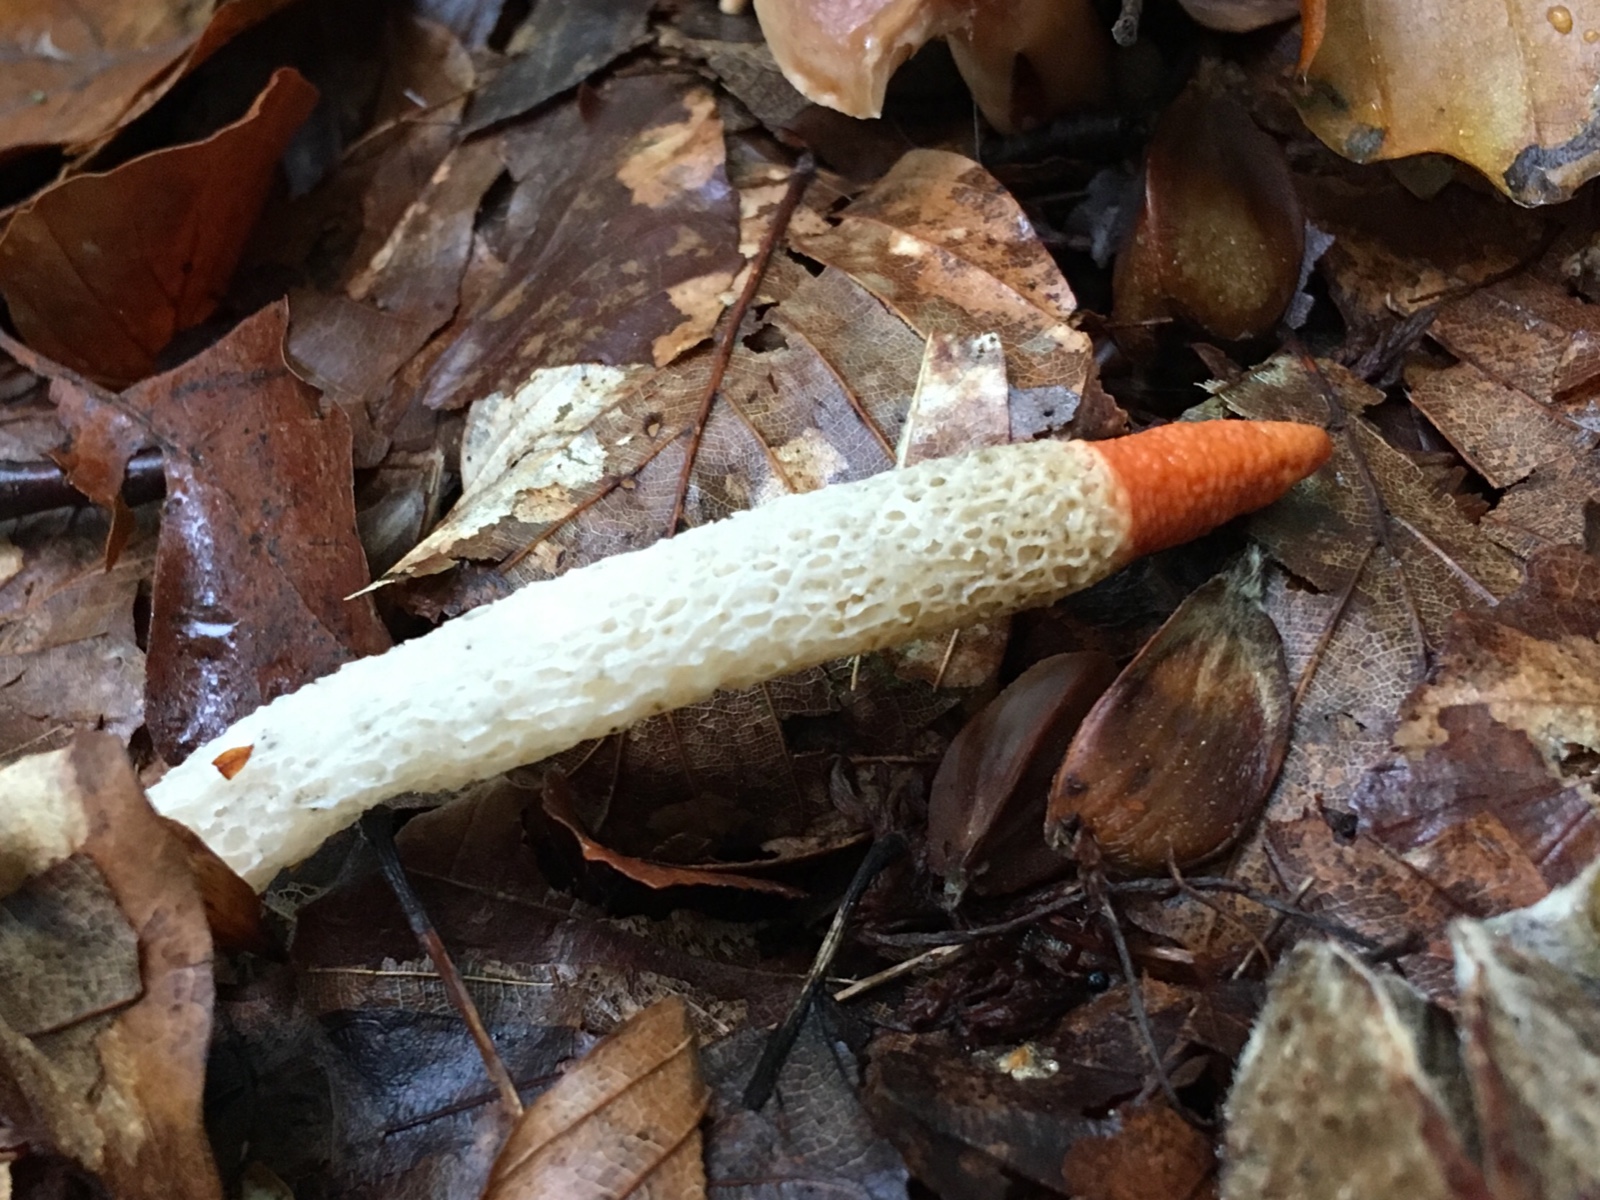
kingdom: Fungi
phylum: Basidiomycota
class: Agaricomycetes
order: Phallales
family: Phallaceae
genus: Mutinus
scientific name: Mutinus caninus
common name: hunde-stinksvamp
